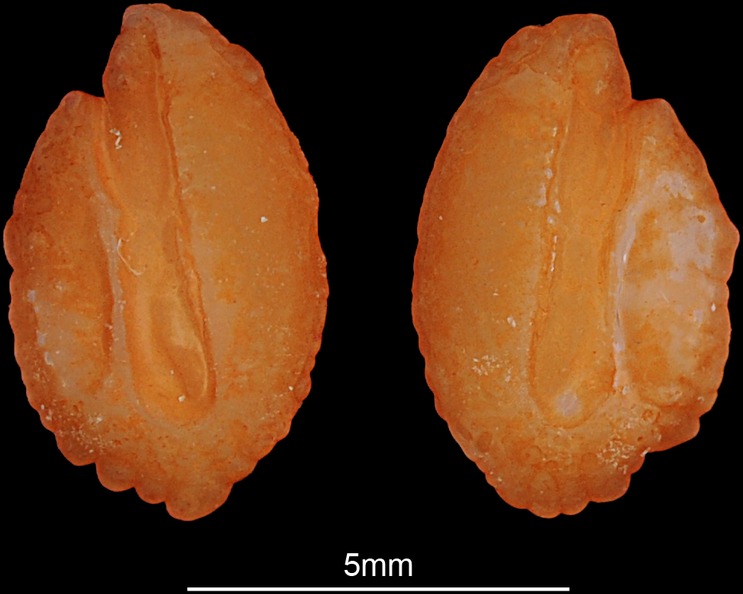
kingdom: Animalia
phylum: Chordata
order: Perciformes
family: Percidae
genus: Gymnocephalus
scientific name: Gymnocephalus cernua
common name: Ruffe
